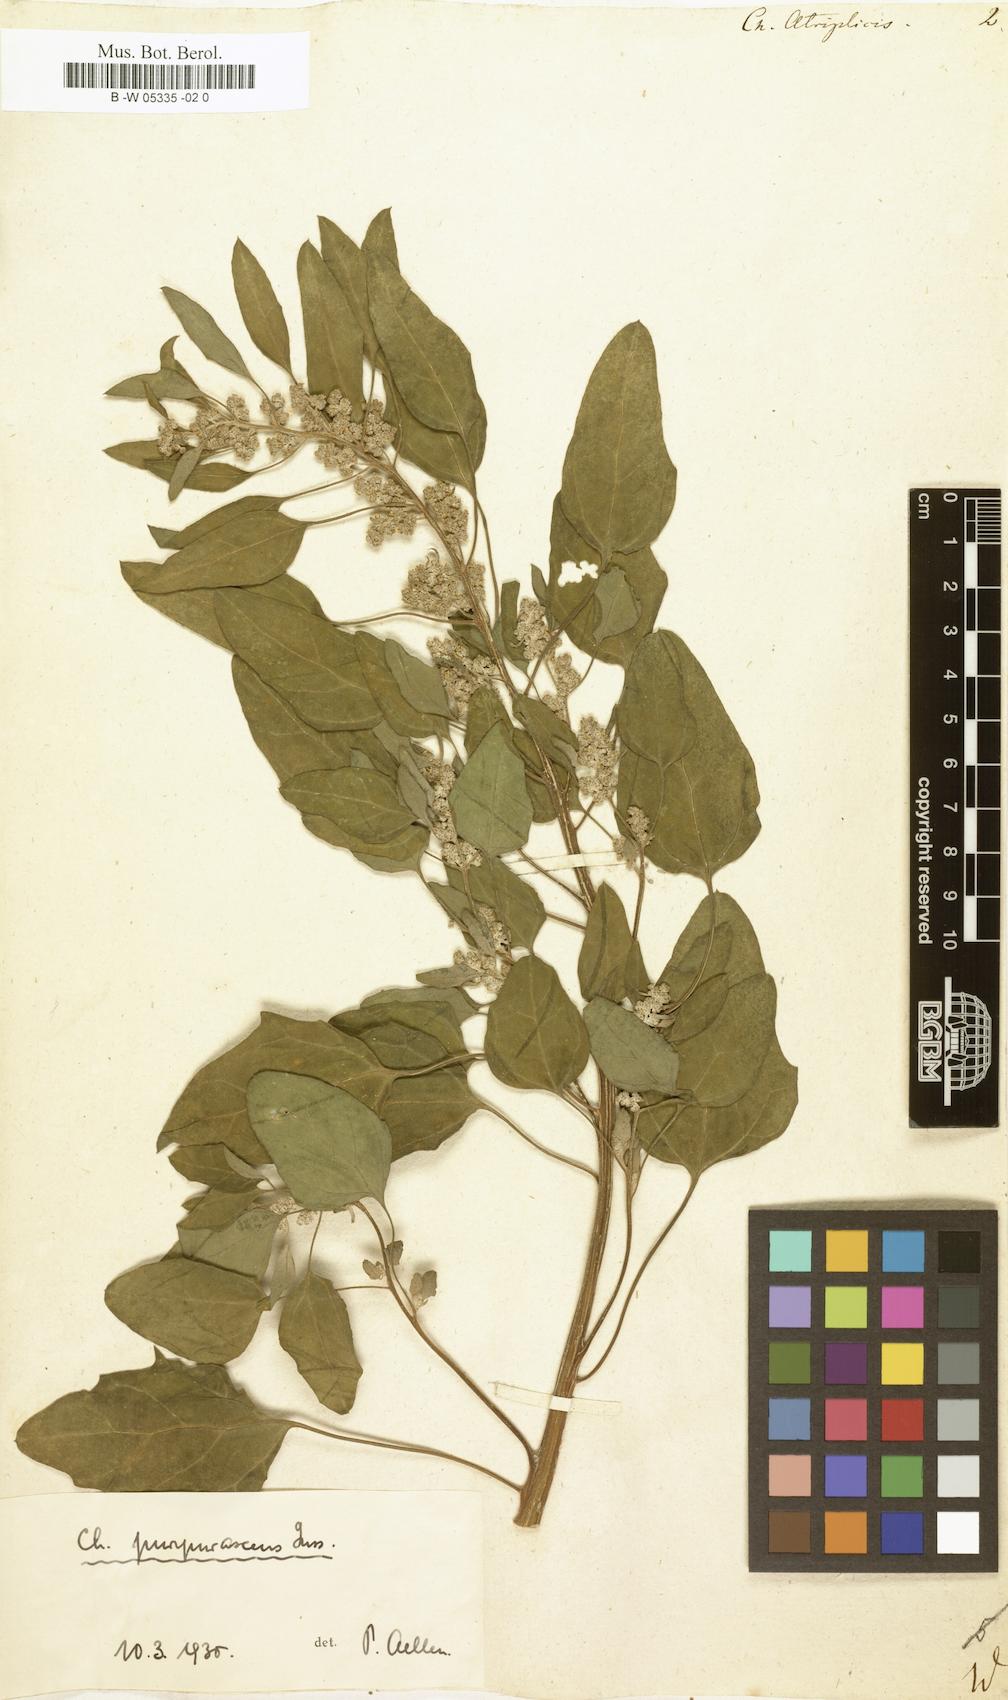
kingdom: Plantae
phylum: Tracheophyta
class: Magnoliopsida
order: Caryophyllales
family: Amaranthaceae
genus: Chenopodium
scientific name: Chenopodium quinoa
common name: Quinoa
